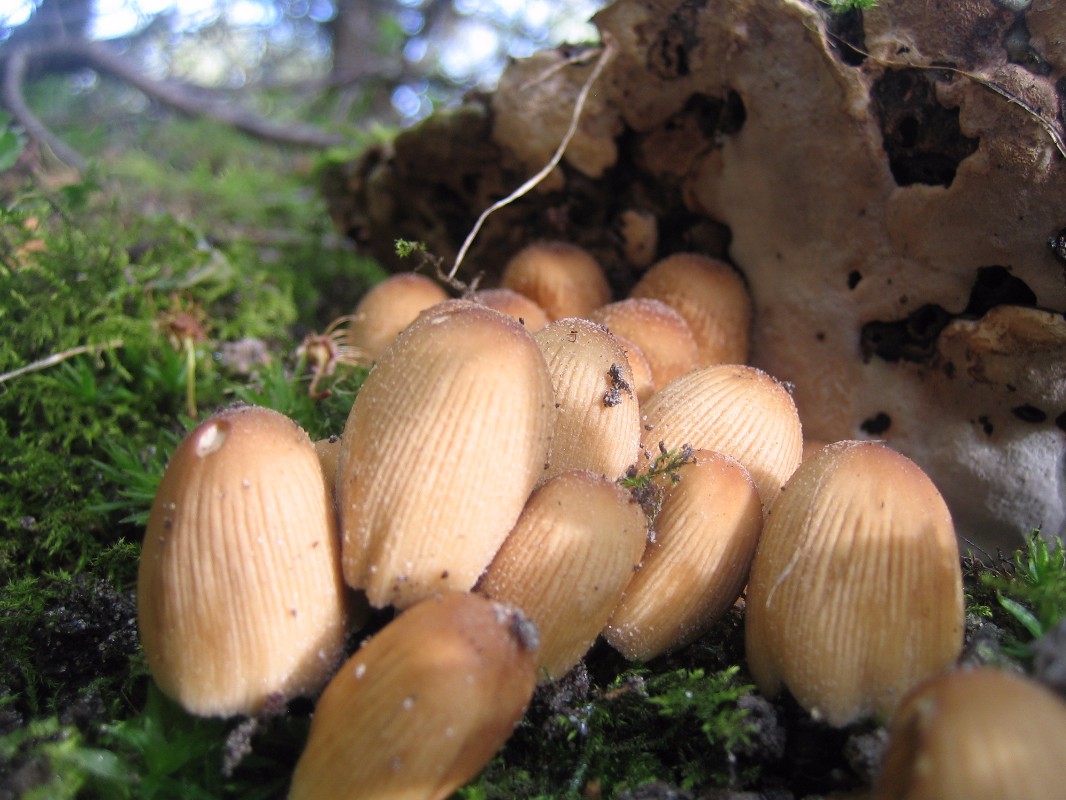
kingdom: Fungi
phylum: Basidiomycota
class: Agaricomycetes
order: Agaricales
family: Psathyrellaceae
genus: Coprinellus
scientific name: Coprinellus micaceus
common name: glimmer-blækhat
